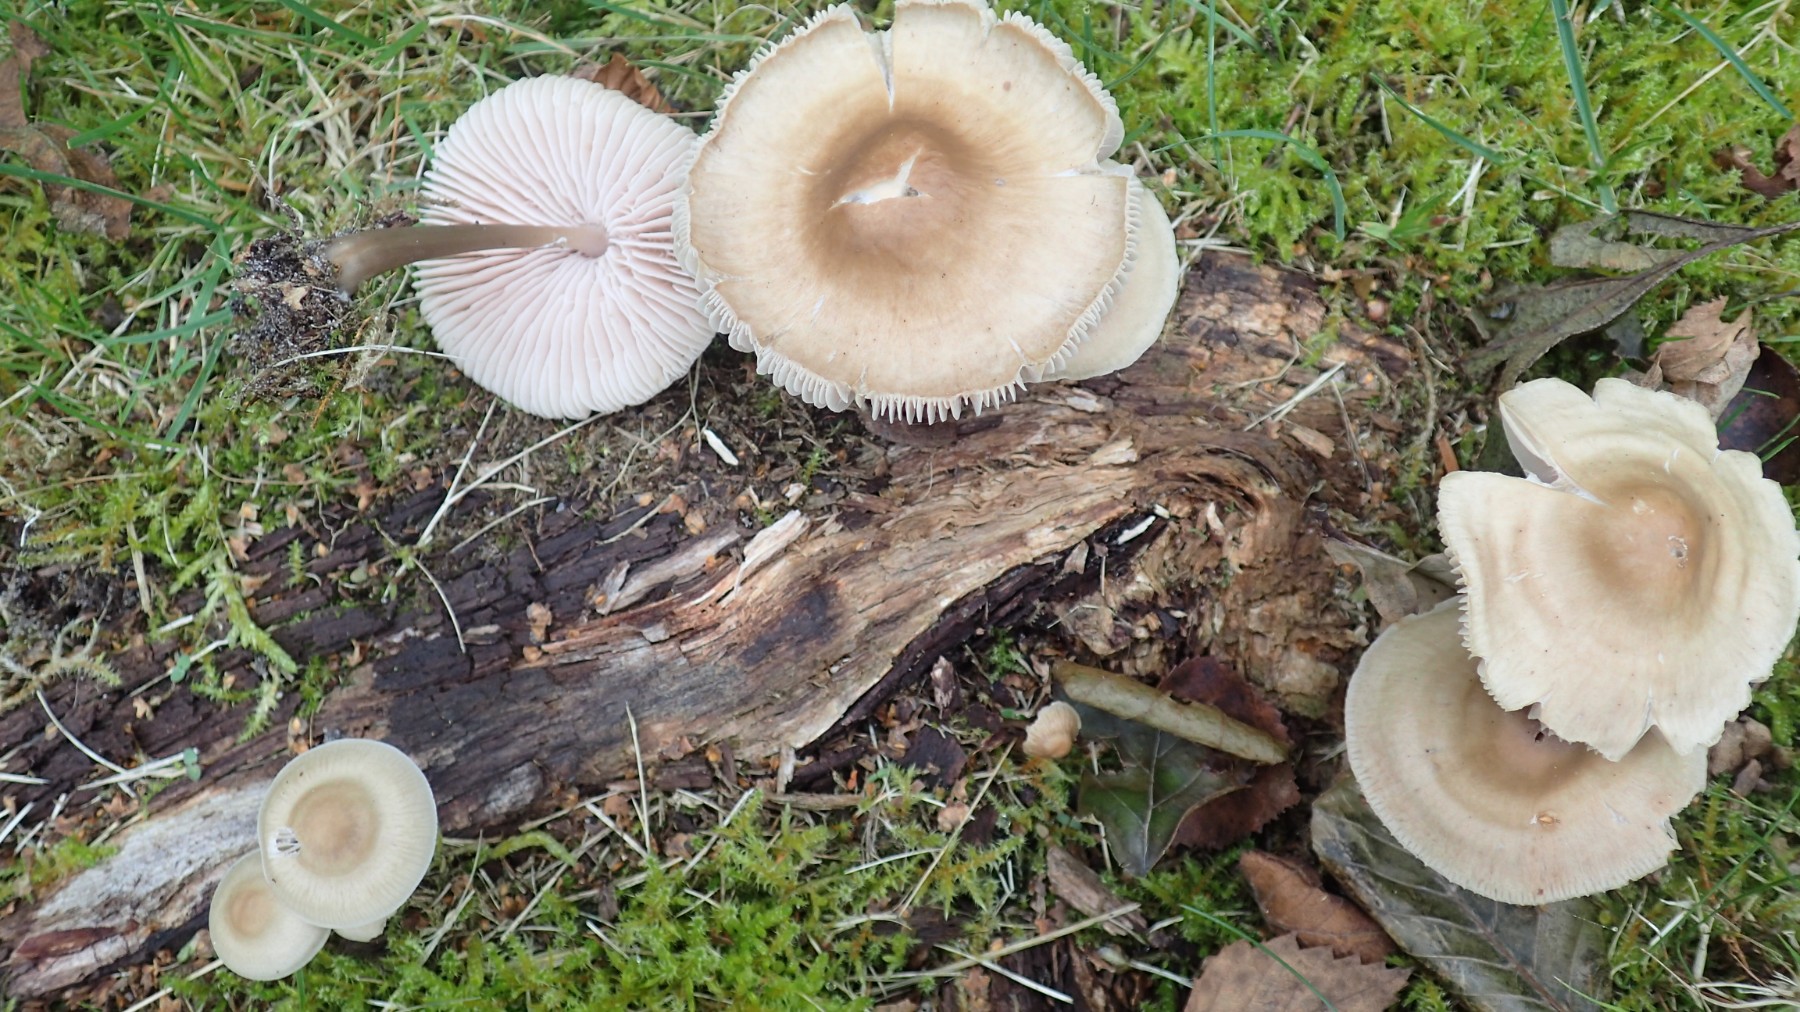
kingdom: Fungi
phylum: Basidiomycota
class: Agaricomycetes
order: Agaricales
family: Mycenaceae
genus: Mycena
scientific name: Mycena galericulata
